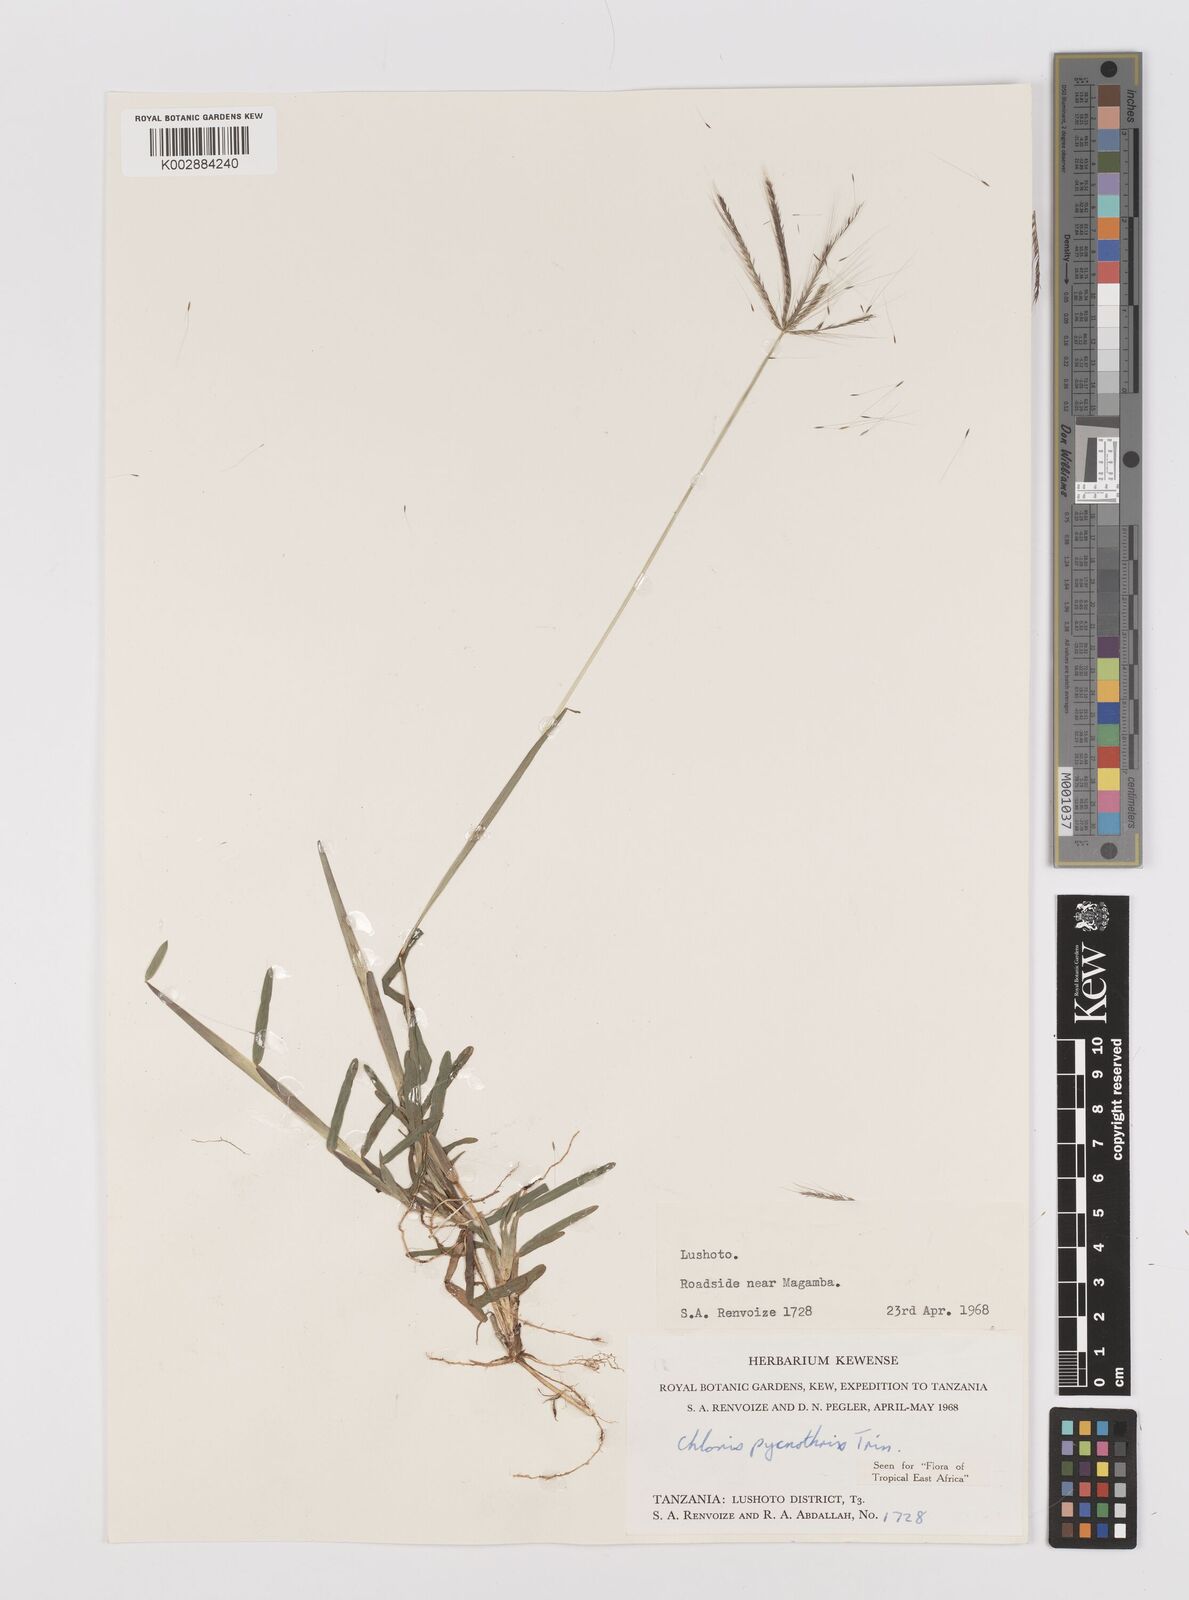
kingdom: Plantae
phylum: Tracheophyta
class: Liliopsida
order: Poales
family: Poaceae
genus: Chloris
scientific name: Chloris pycnothrix
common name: Spiderweb chloris
